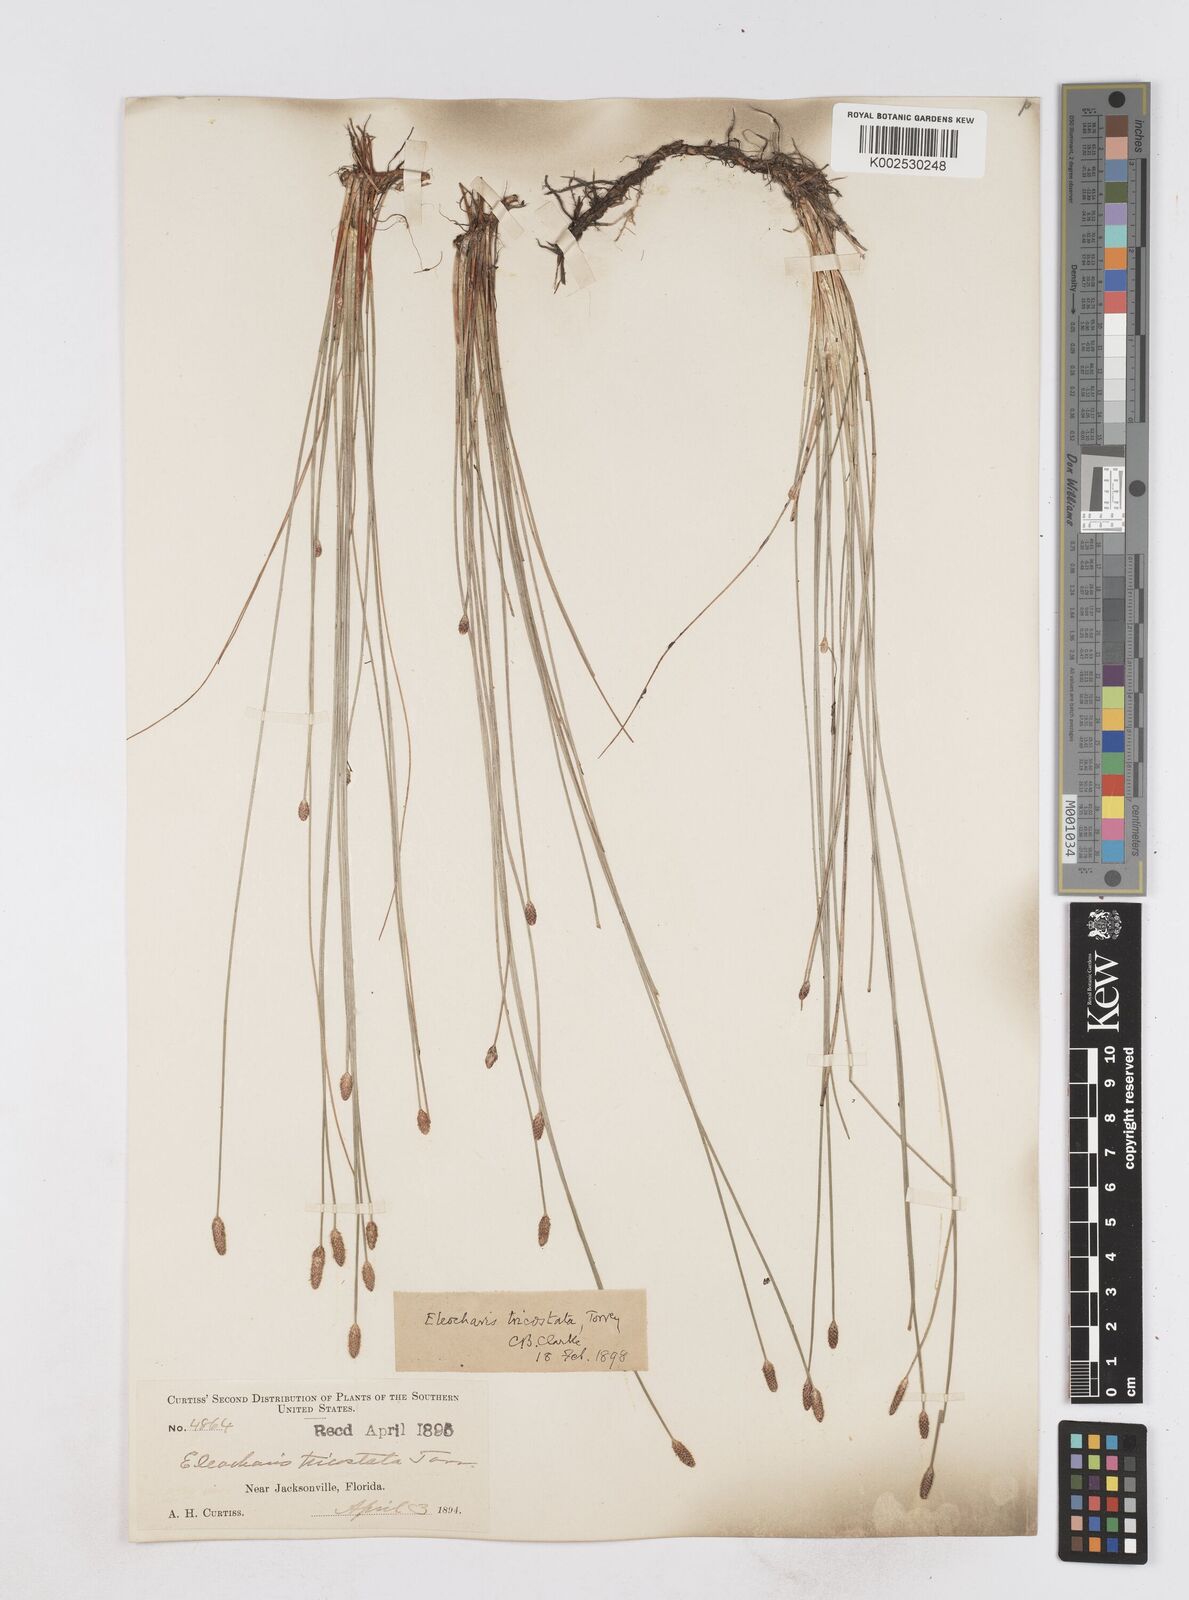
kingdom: Plantae
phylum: Tracheophyta
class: Liliopsida
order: Poales
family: Cyperaceae
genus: Eleocharis
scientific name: Eleocharis tricostata
